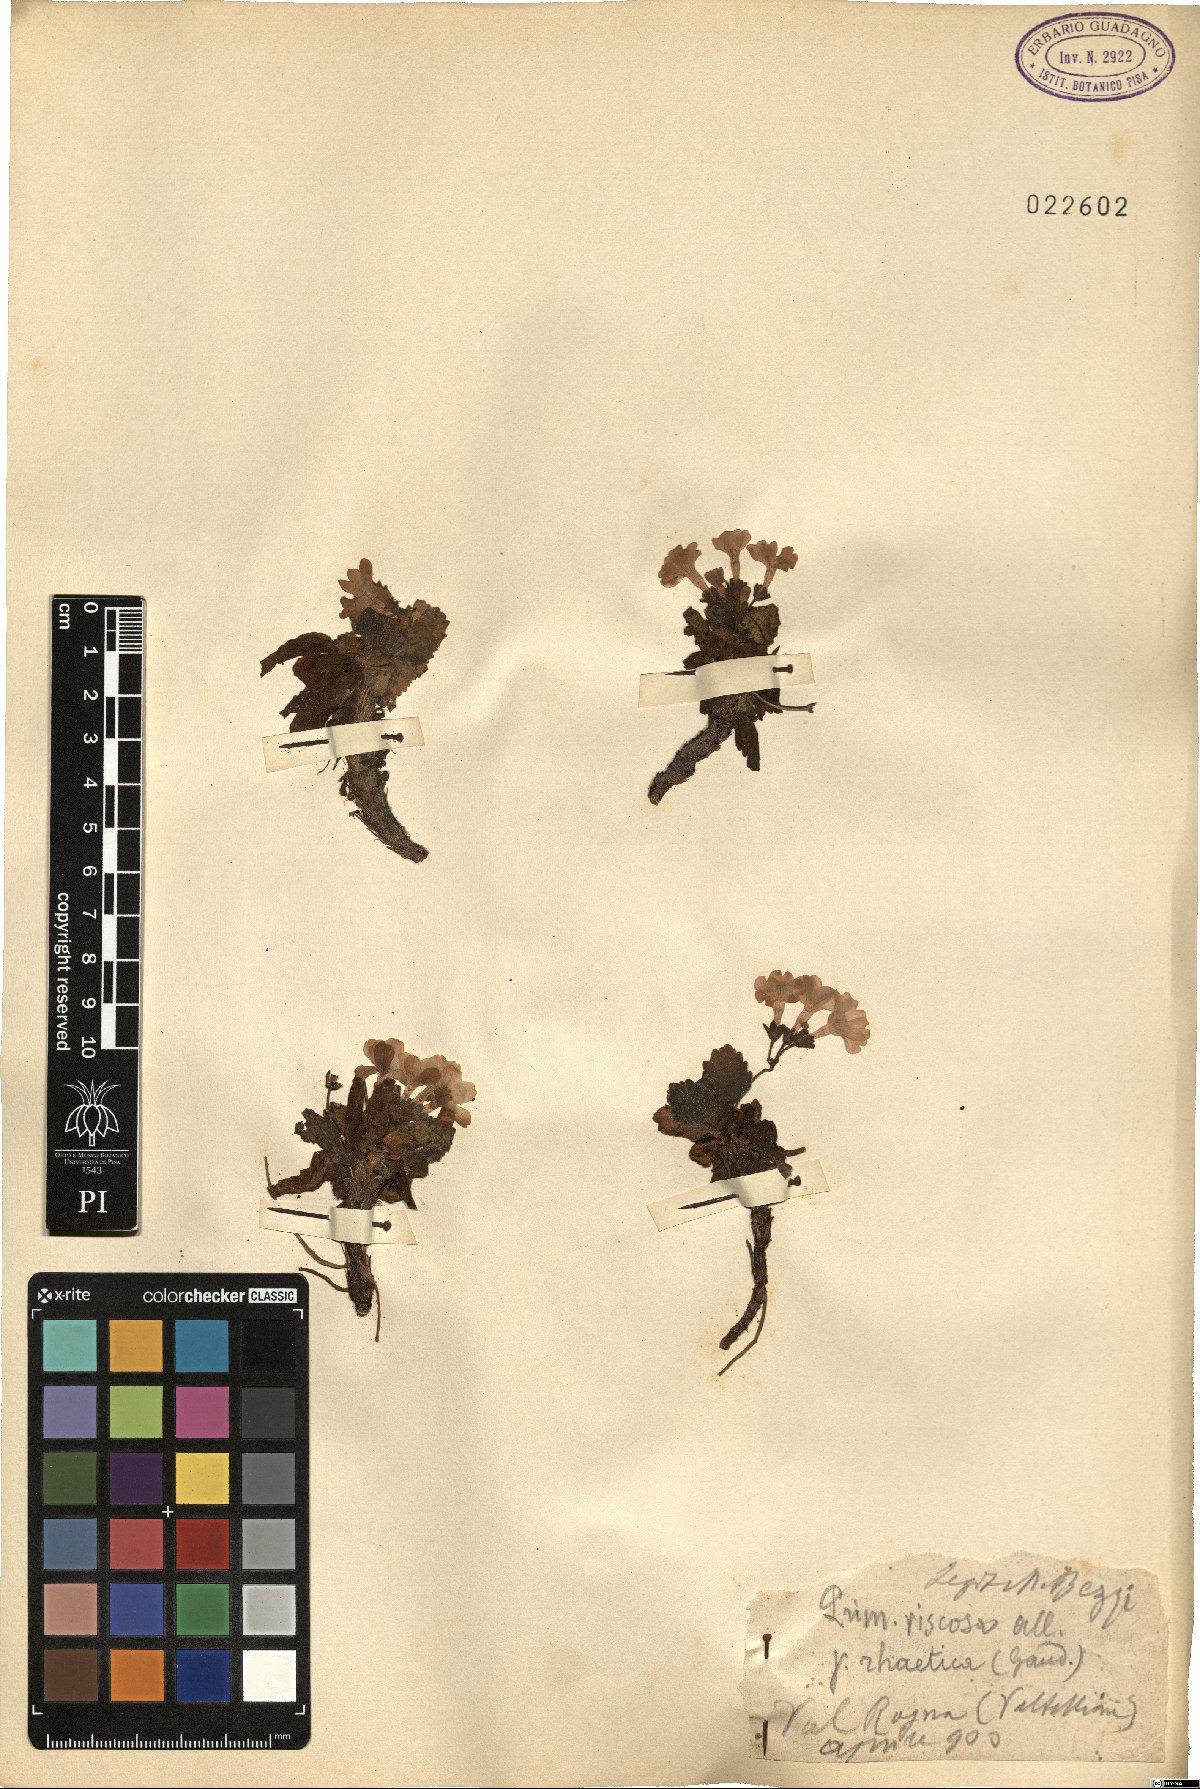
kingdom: Plantae
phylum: Tracheophyta
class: Magnoliopsida
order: Ericales
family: Primulaceae
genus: Primula
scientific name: Primula
